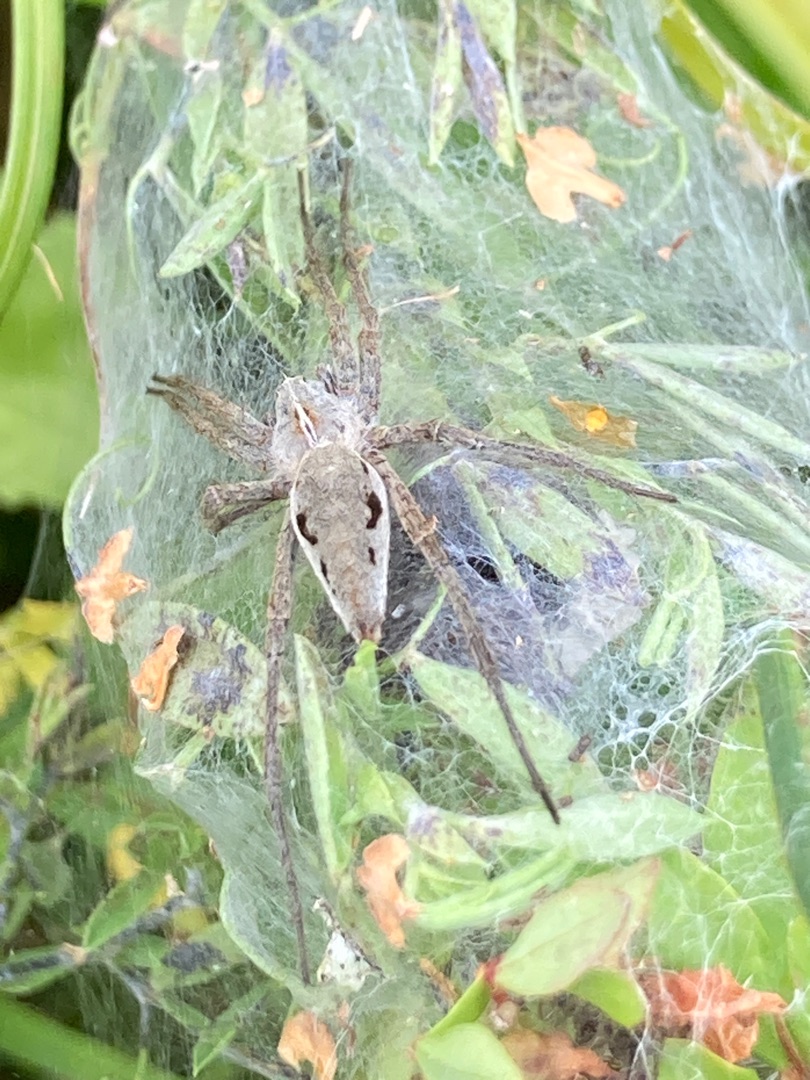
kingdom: Animalia
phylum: Arthropoda
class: Arachnida
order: Araneae
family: Pisauridae
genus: Pisaura
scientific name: Pisaura mirabilis
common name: Almindelig rovedderkop
